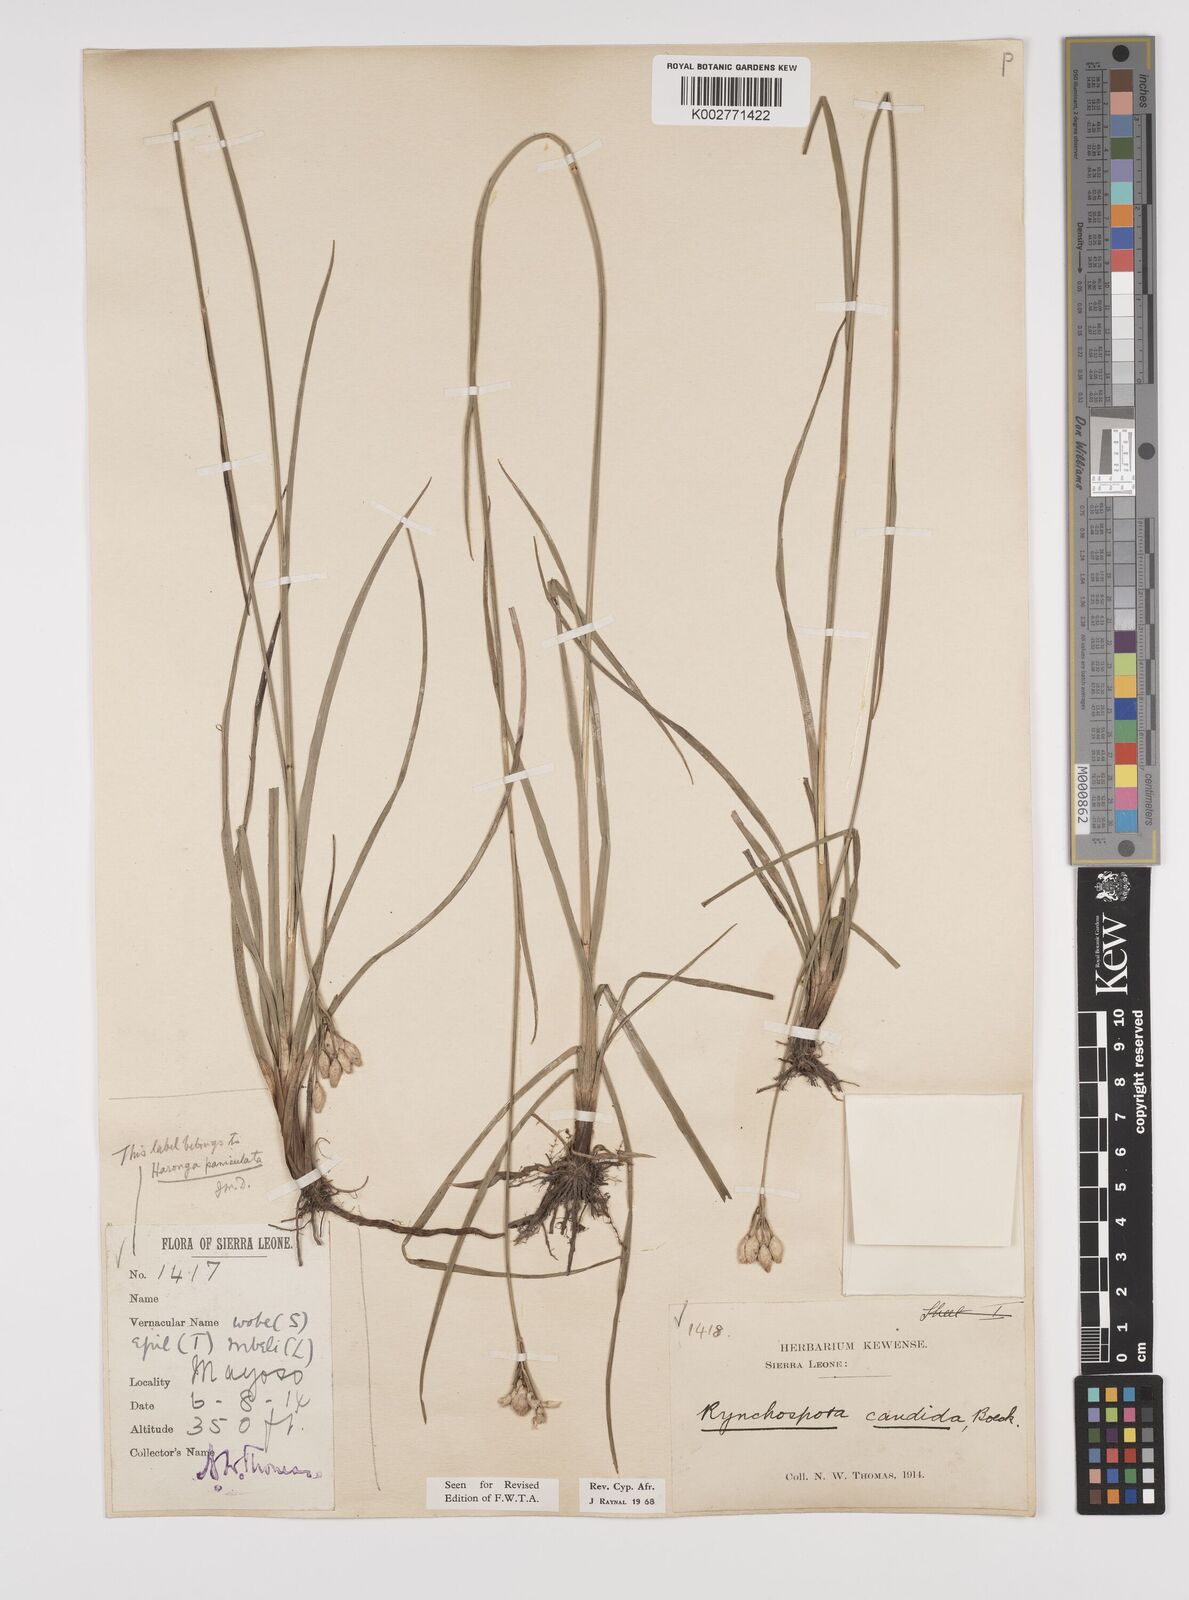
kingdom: Plantae
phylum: Tracheophyta
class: Liliopsida
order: Poales
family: Cyperaceae
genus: Rhynchospora
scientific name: Rhynchospora candida
